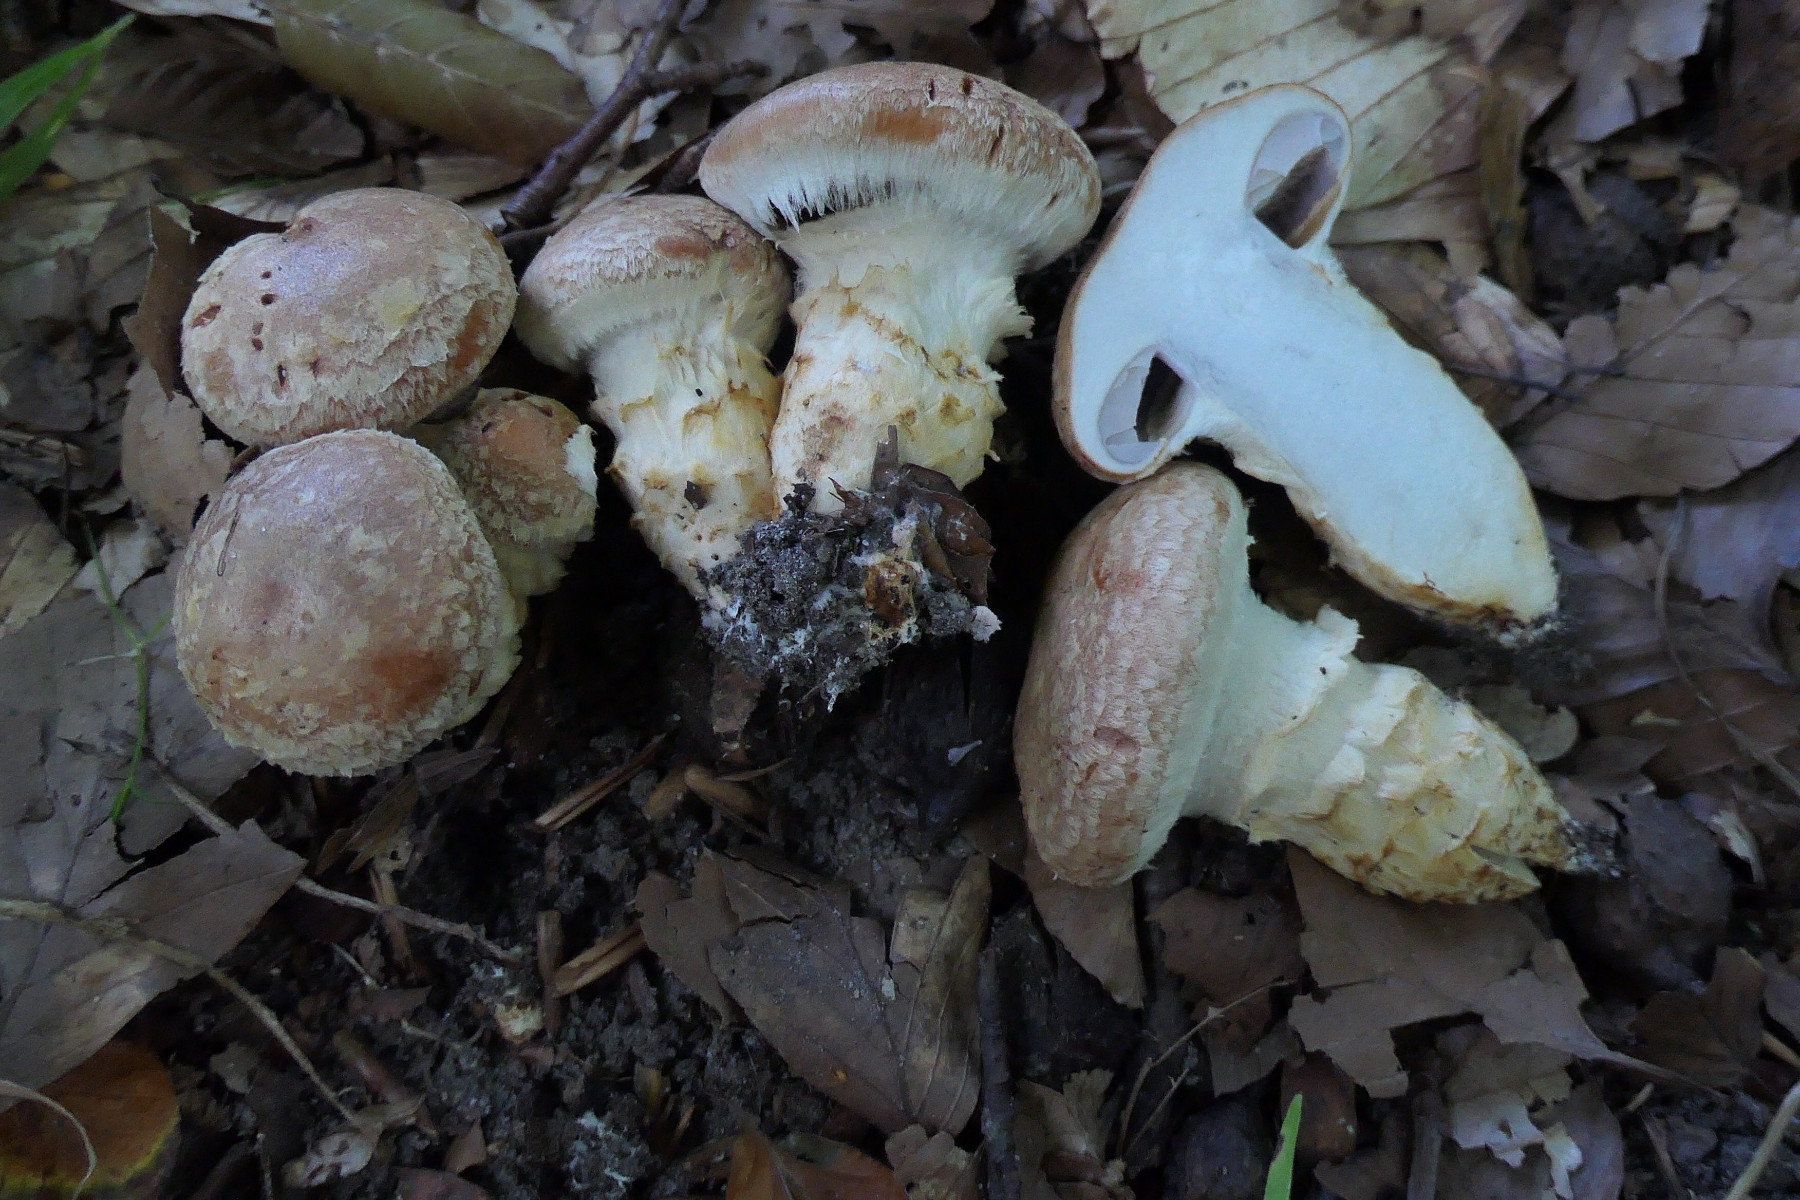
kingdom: Fungi
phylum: Basidiomycota
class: Agaricomycetes
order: Agaricales
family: Cortinariaceae
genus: Phlegmacium
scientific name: Phlegmacium vulpinum
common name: ringbæltet slørhat
